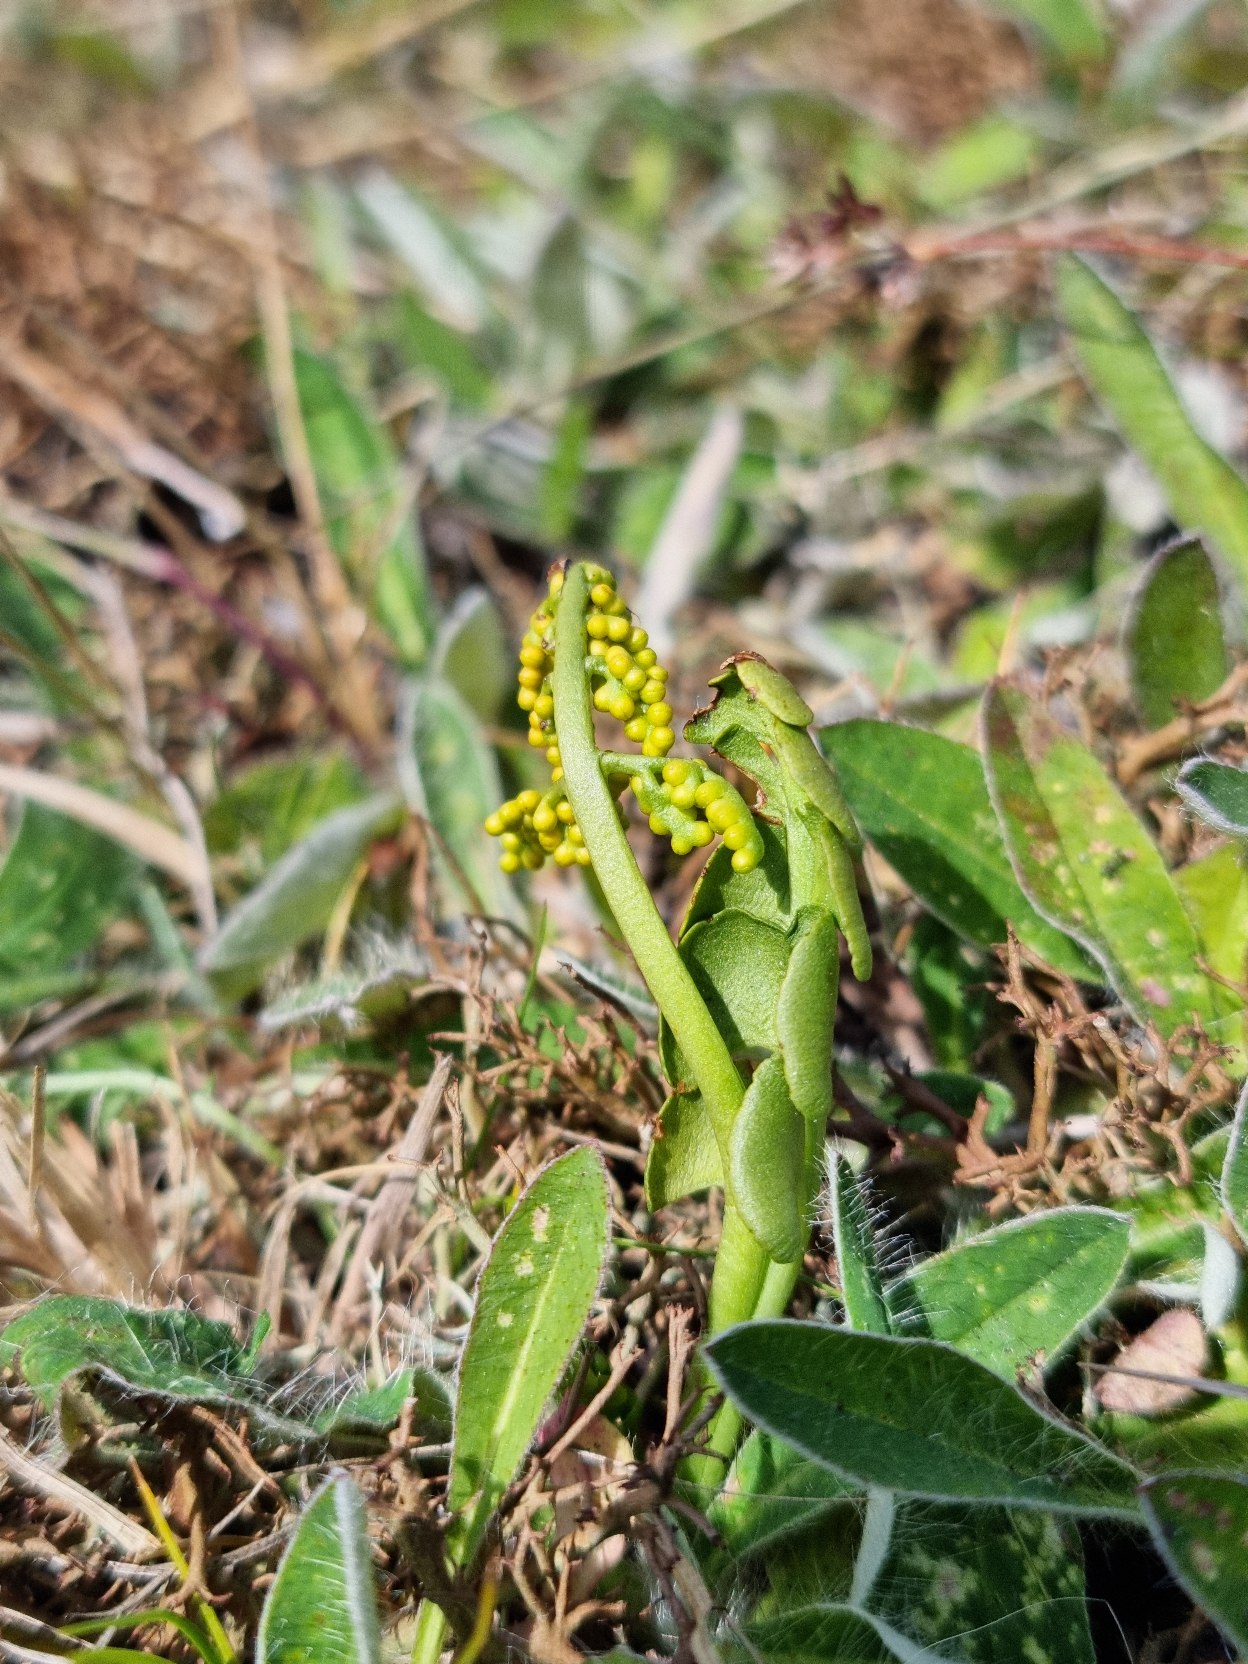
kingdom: Plantae
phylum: Tracheophyta
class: Polypodiopsida
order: Ophioglossales
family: Ophioglossaceae
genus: Botrychium
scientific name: Botrychium lunaria
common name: Almindelig månerude
